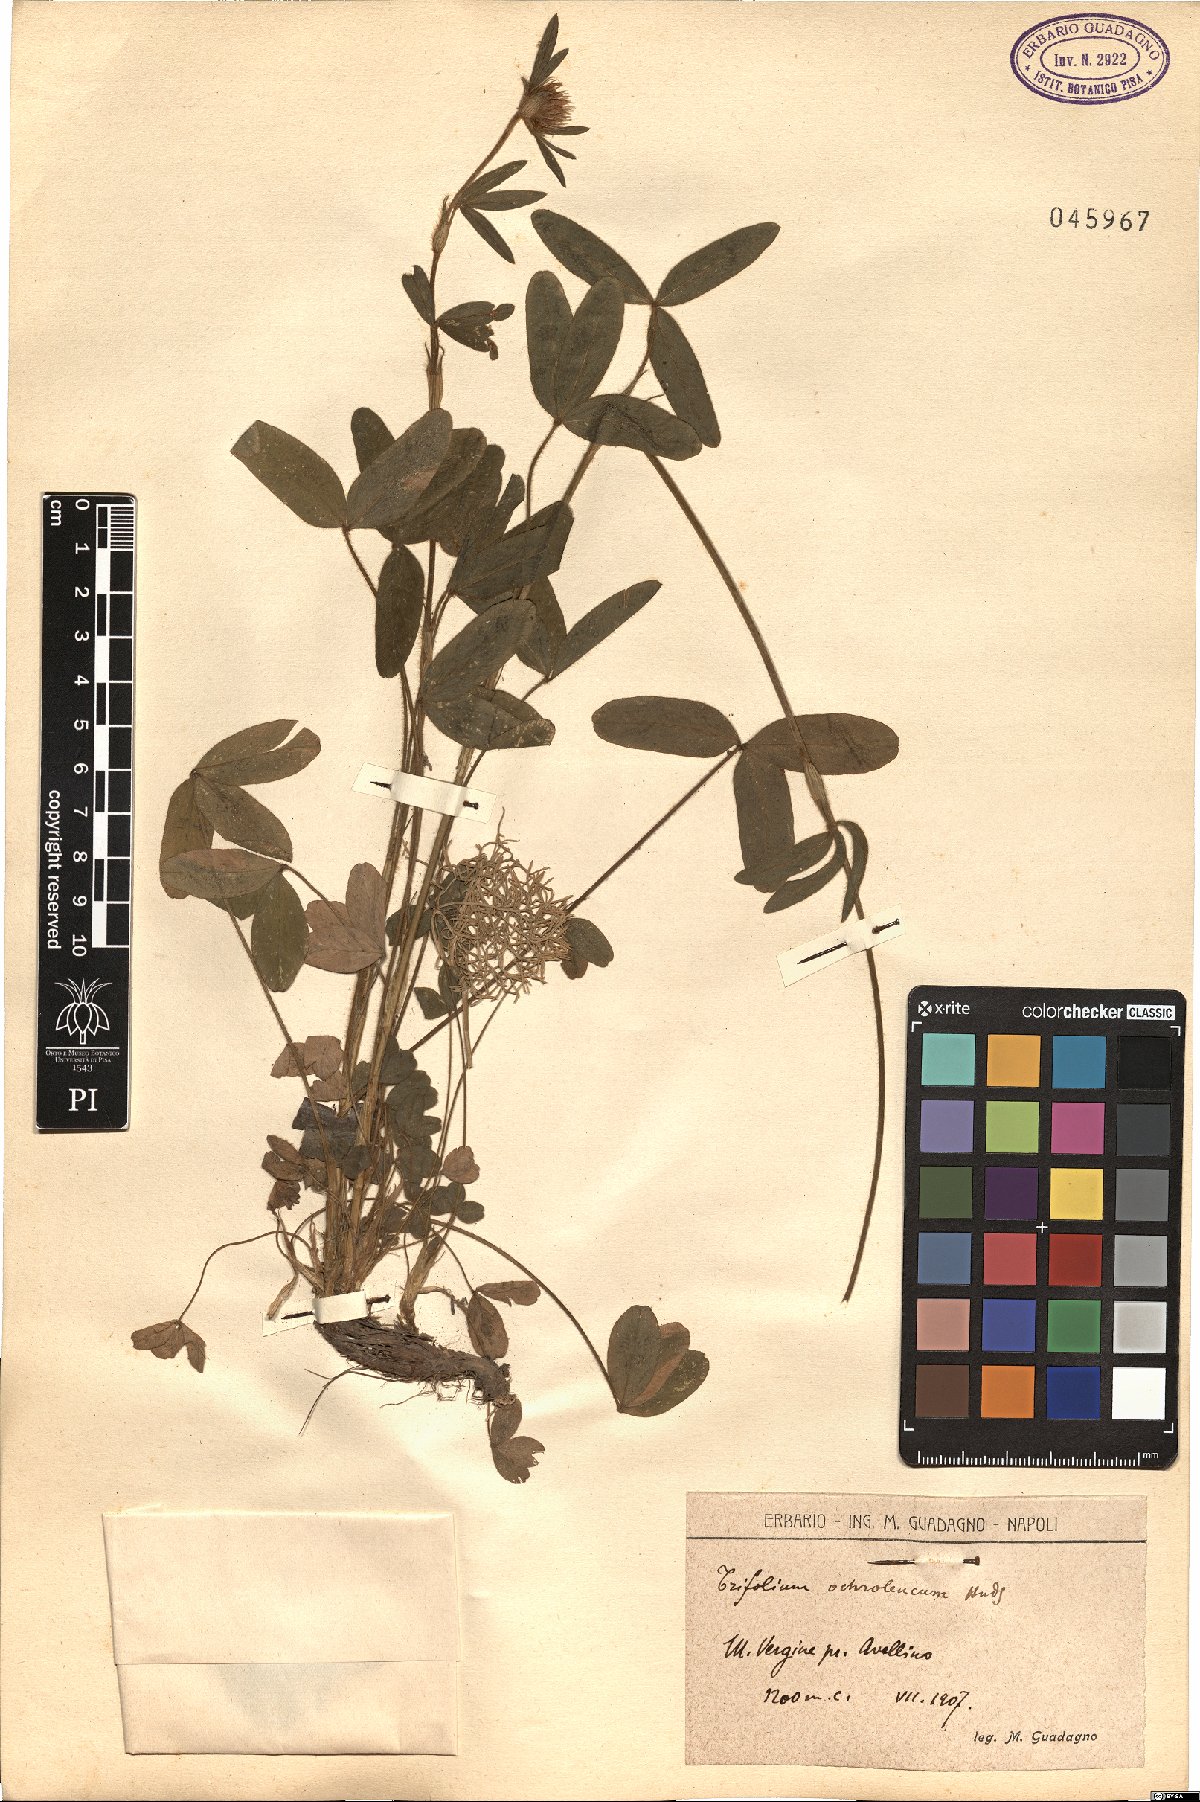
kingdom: Plantae
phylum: Tracheophyta
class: Magnoliopsida
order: Fabales
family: Fabaceae
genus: Trifolium
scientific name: Trifolium ochroleucon
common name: Sulphur clover
